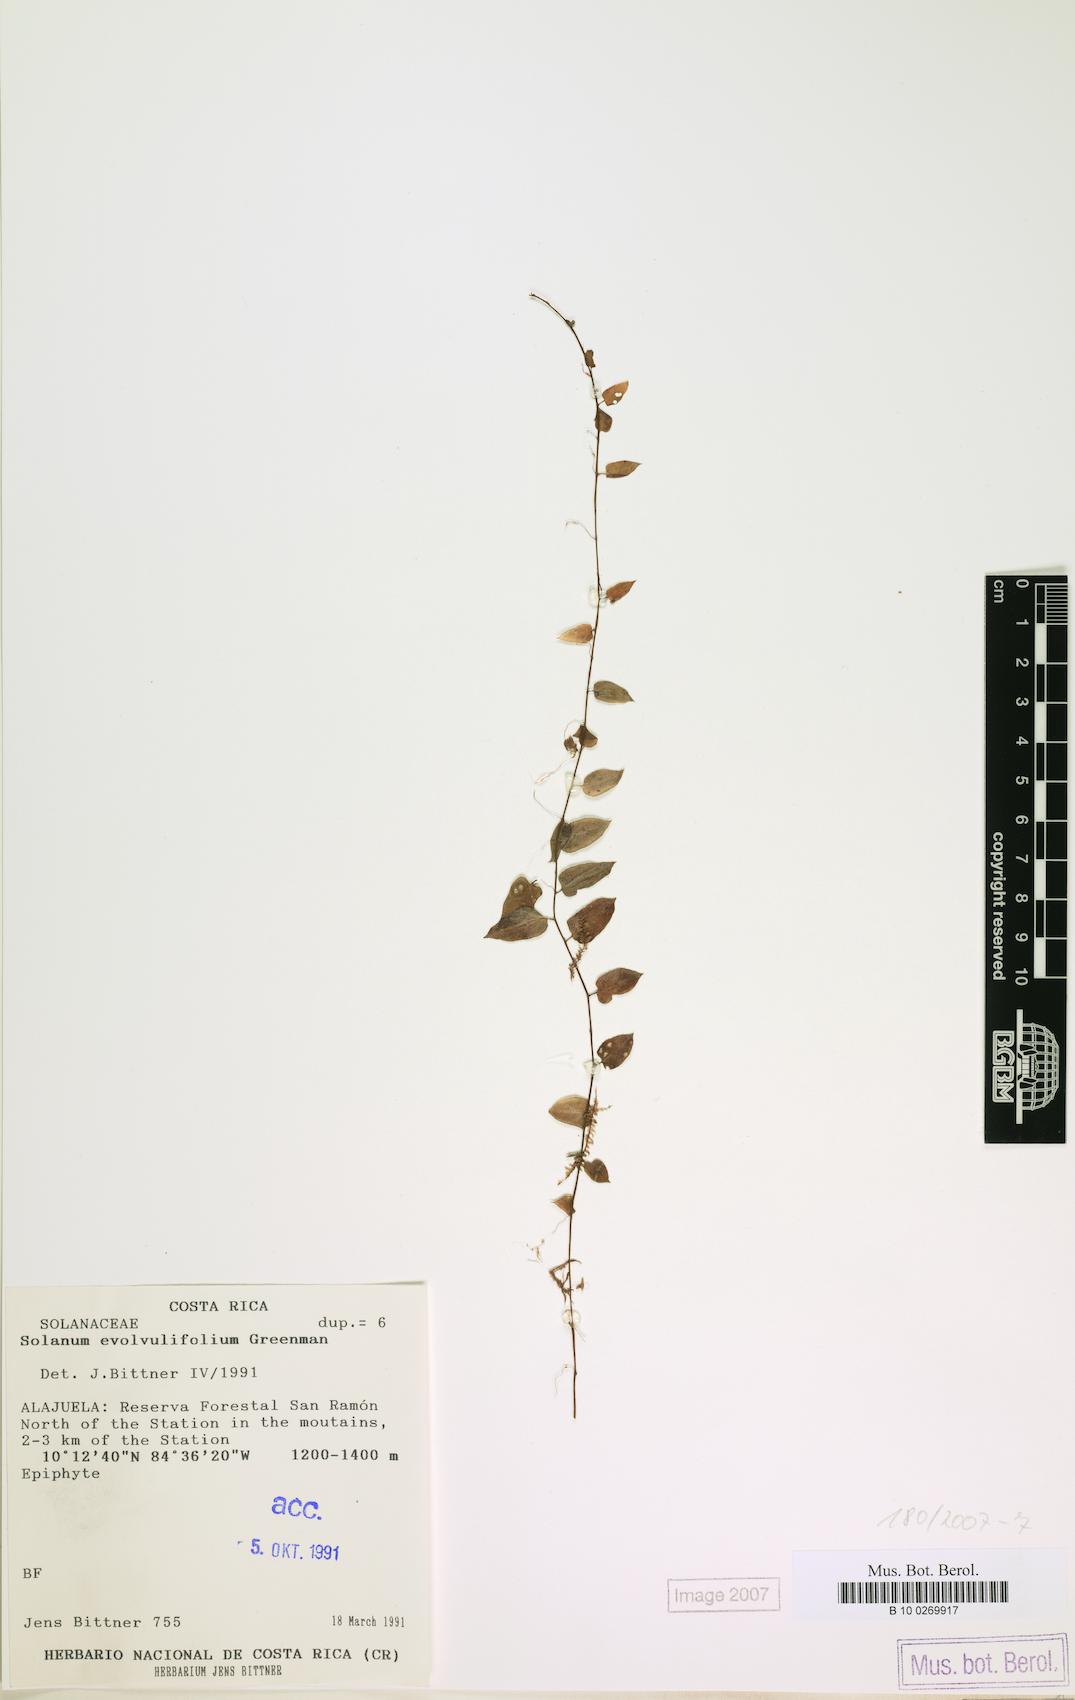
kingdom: Plantae
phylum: Tracheophyta
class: Magnoliopsida
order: Solanales
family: Solanaceae
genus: Solanum
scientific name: Solanum evolvulifolium
